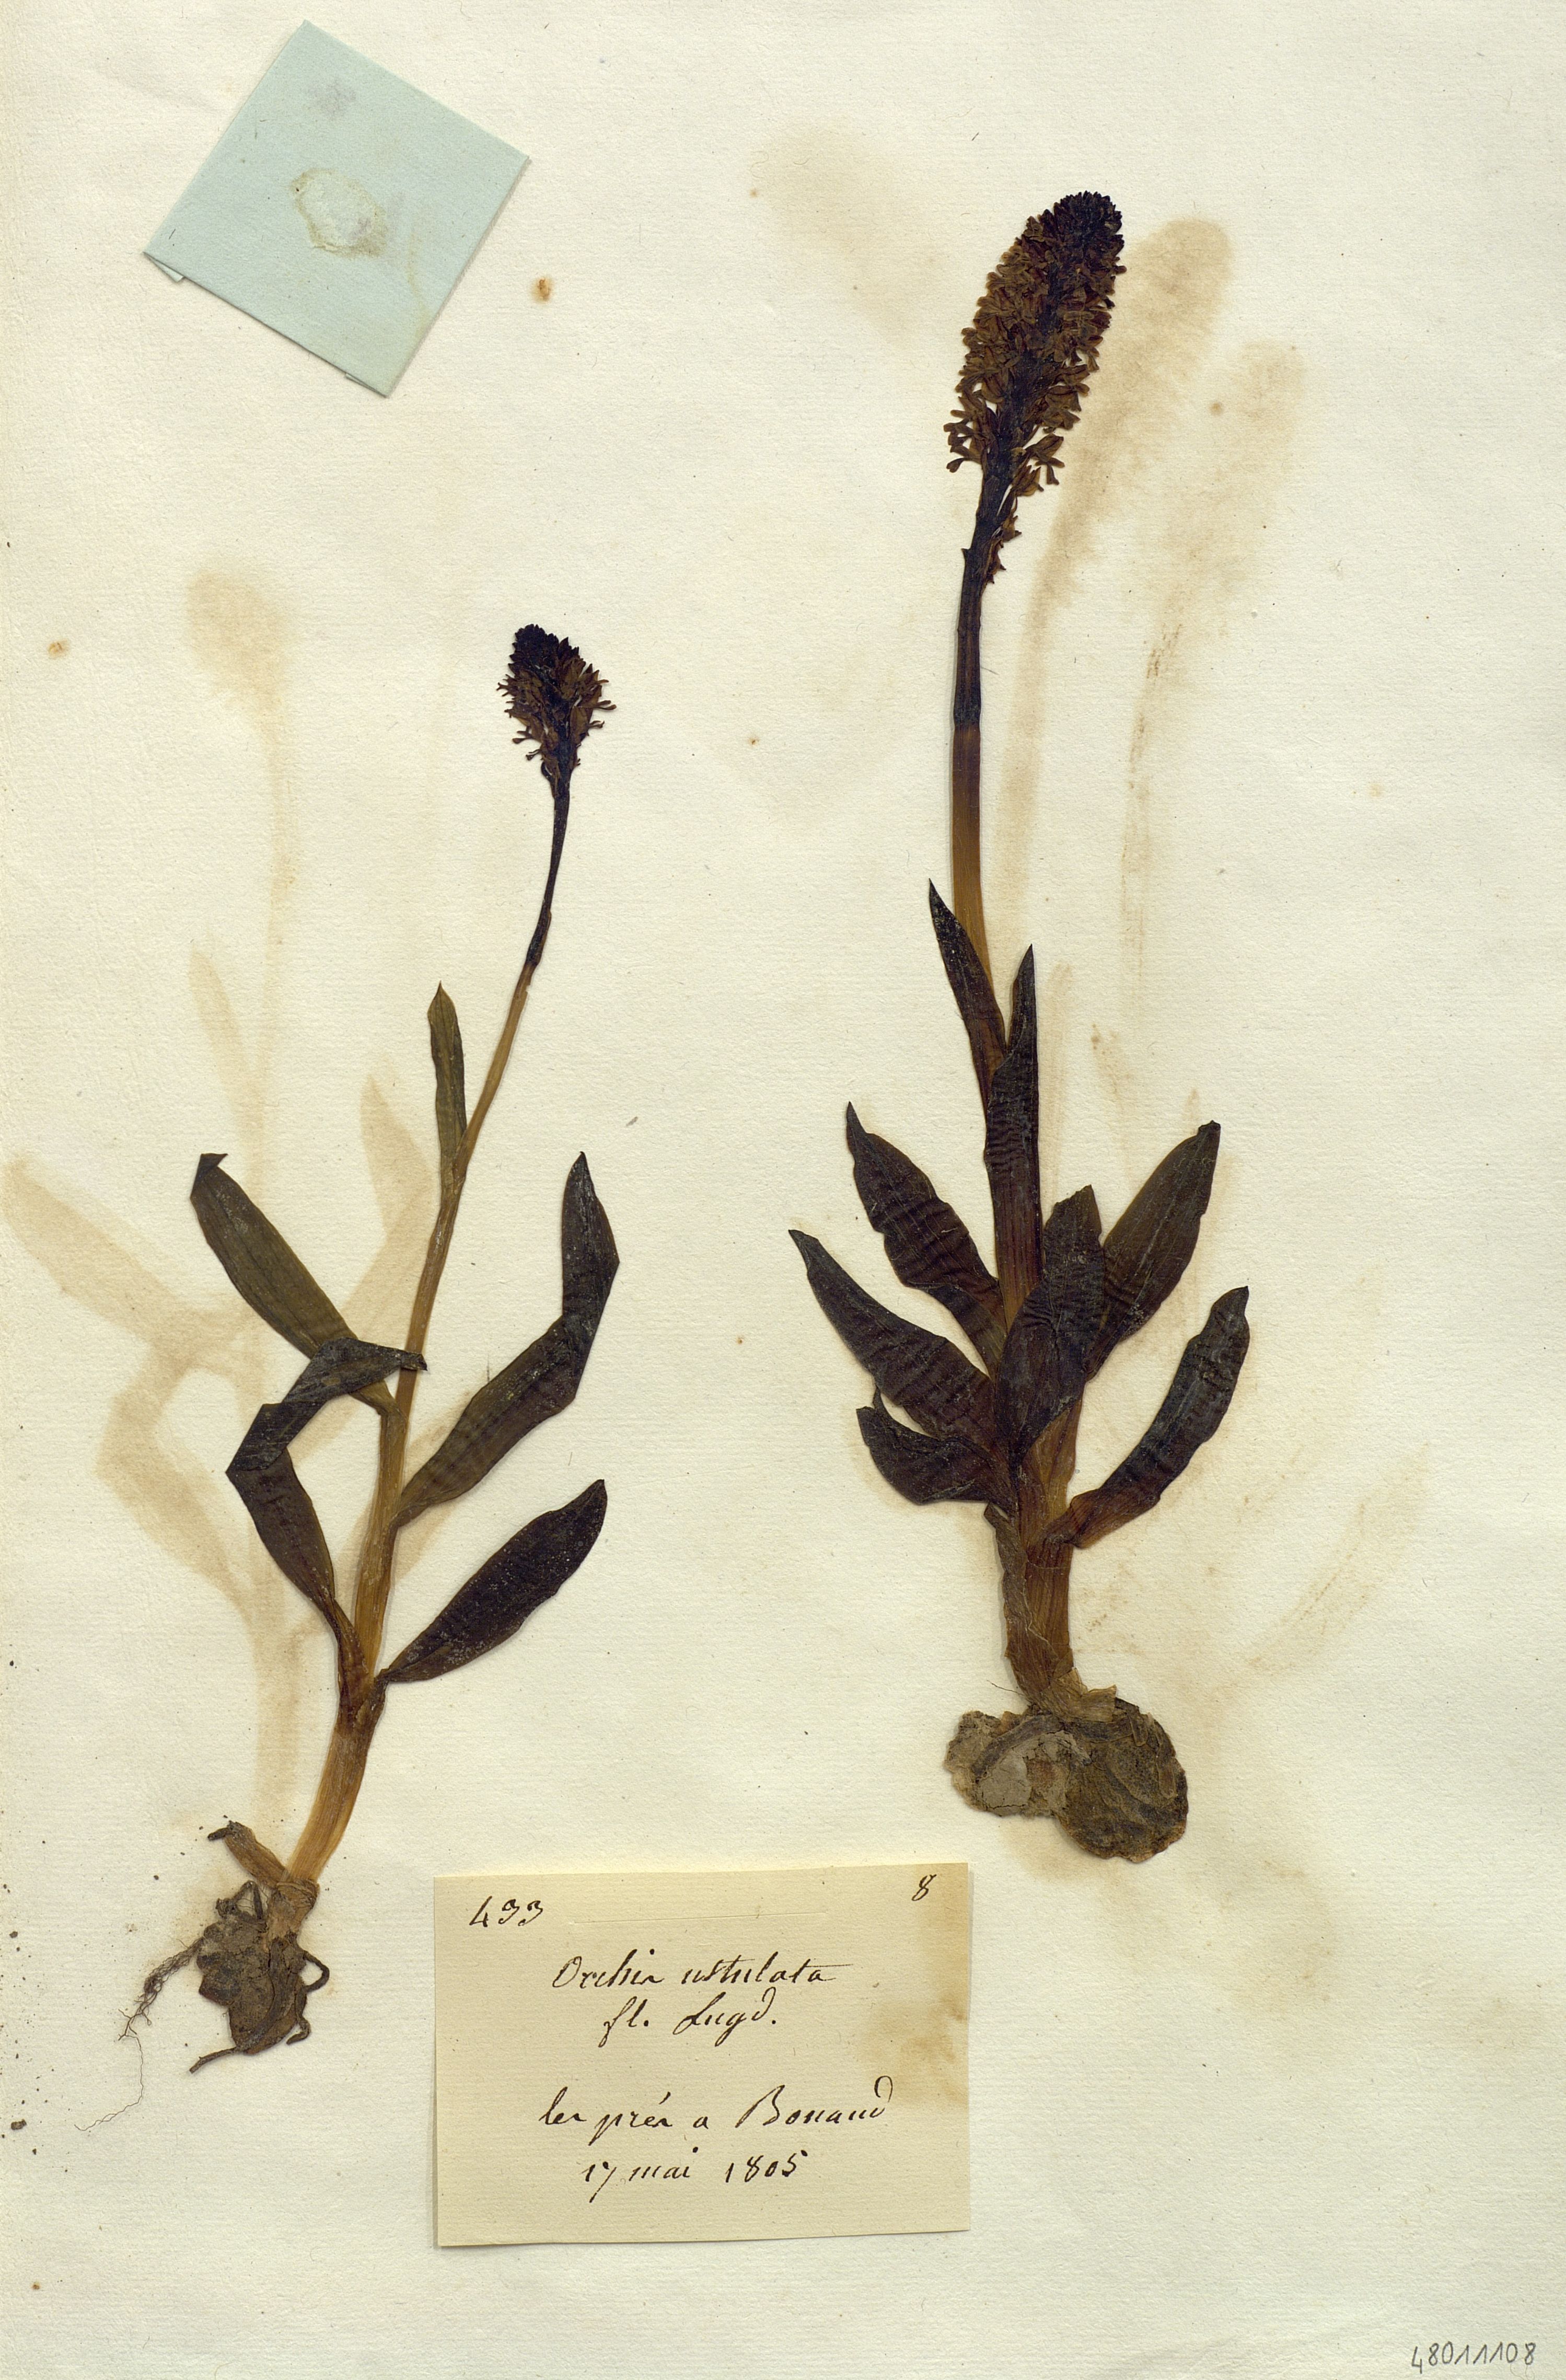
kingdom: Plantae
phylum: Tracheophyta
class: Liliopsida
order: Asparagales
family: Orchidaceae
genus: Neotinea
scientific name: Neotinea ustulata
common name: Burnt orchid
